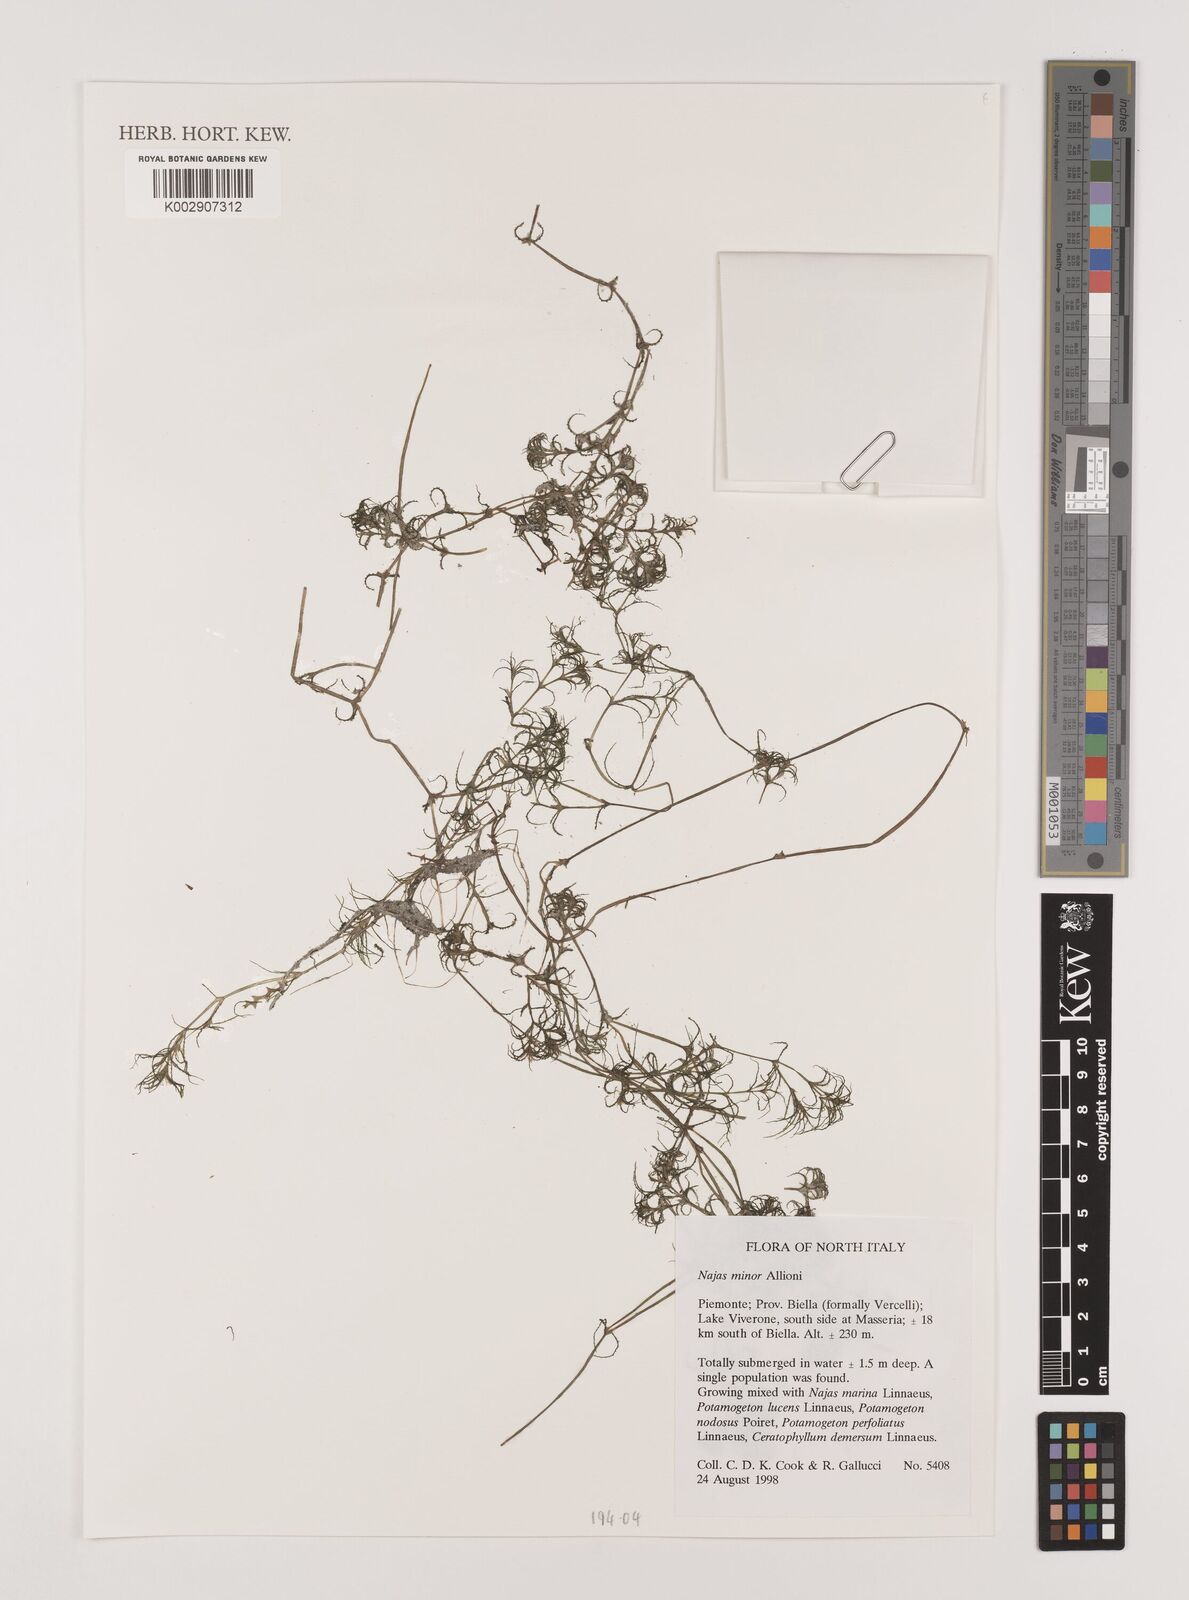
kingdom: Plantae
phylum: Tracheophyta
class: Liliopsida
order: Alismatales
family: Hydrocharitaceae
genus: Najas
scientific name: Najas minor
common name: Brittle naiad
